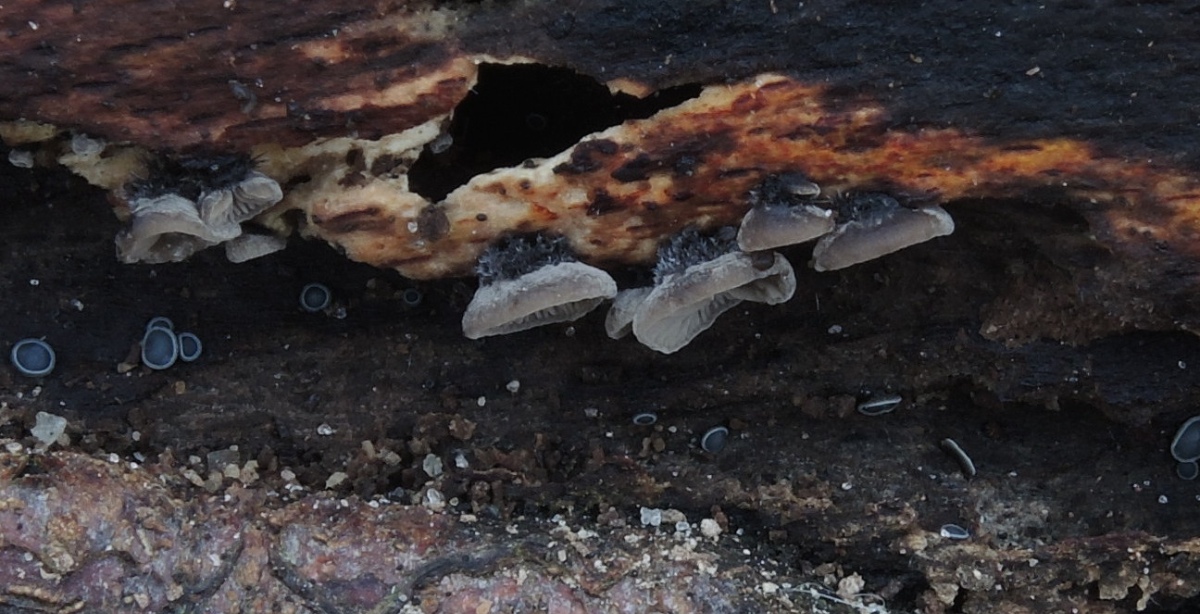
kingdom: Fungi
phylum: Basidiomycota
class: Agaricomycetes
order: Agaricales
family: Pleurotaceae
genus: Resupinatus
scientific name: Resupinatus trichotis
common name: mørkfiltet barkhat
